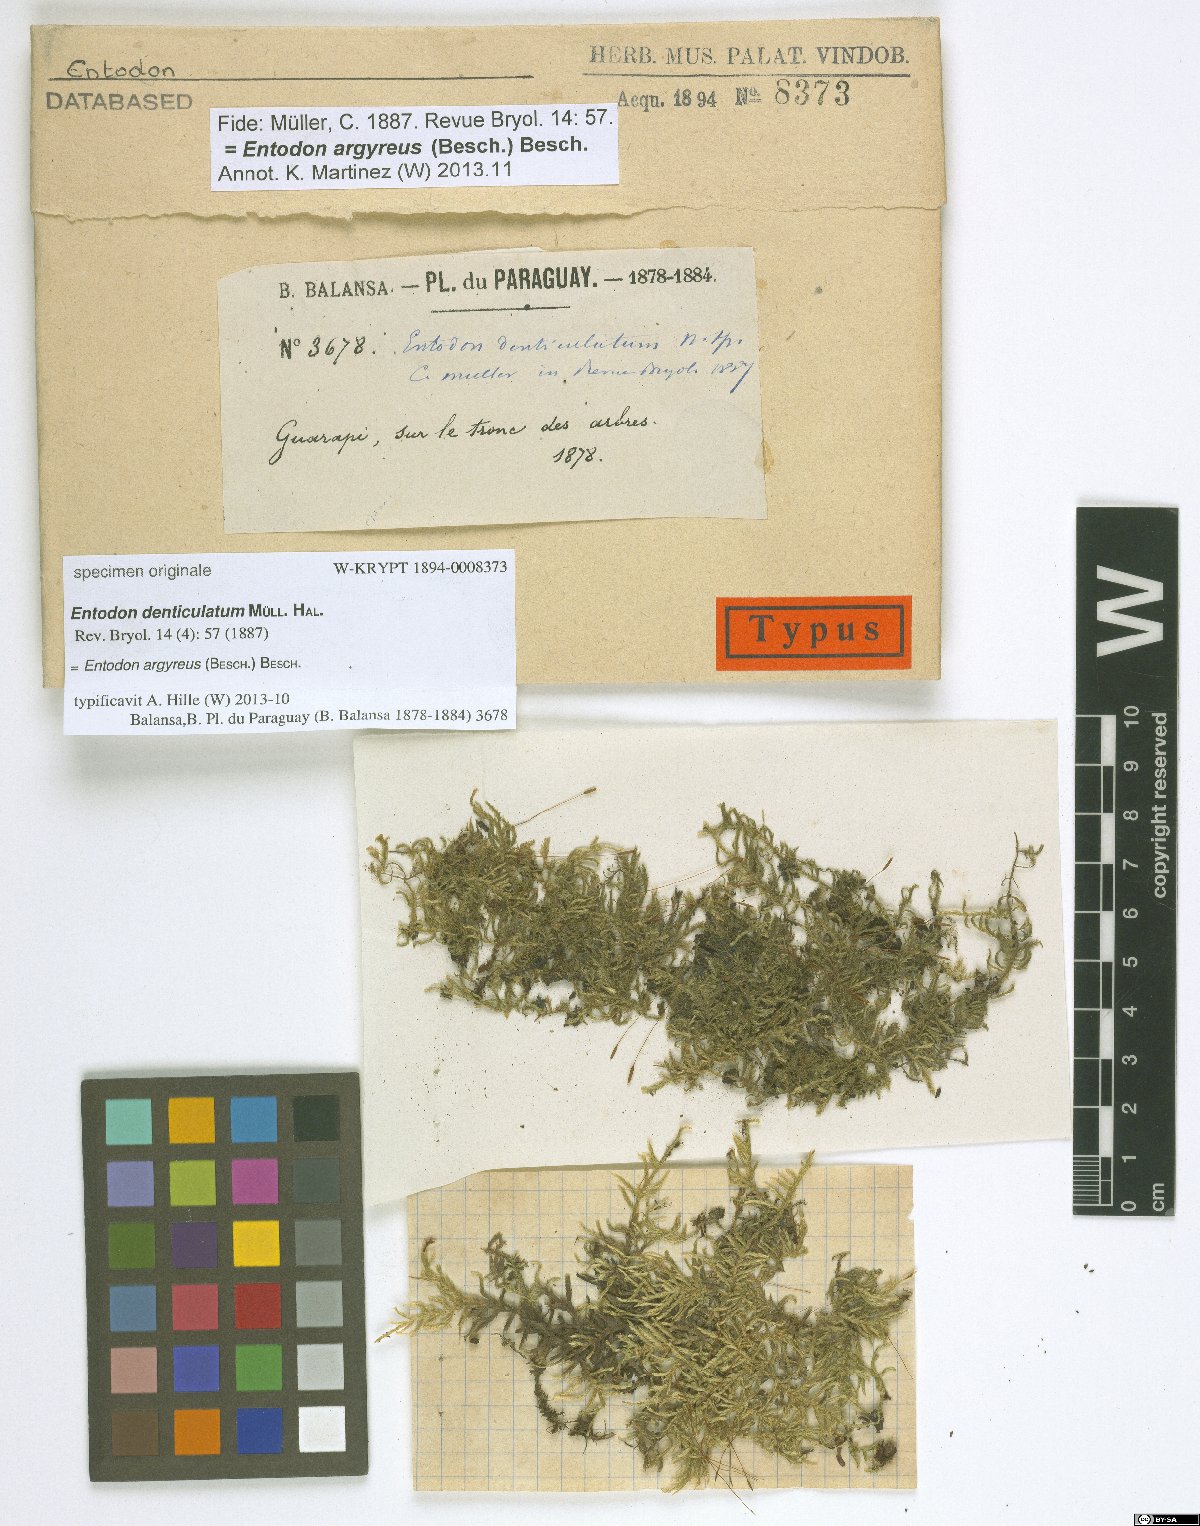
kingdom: Plantae
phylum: Bryophyta
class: Bryopsida
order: Hypnales
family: Entodontaceae
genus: Entodon
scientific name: Entodon denticulatum
